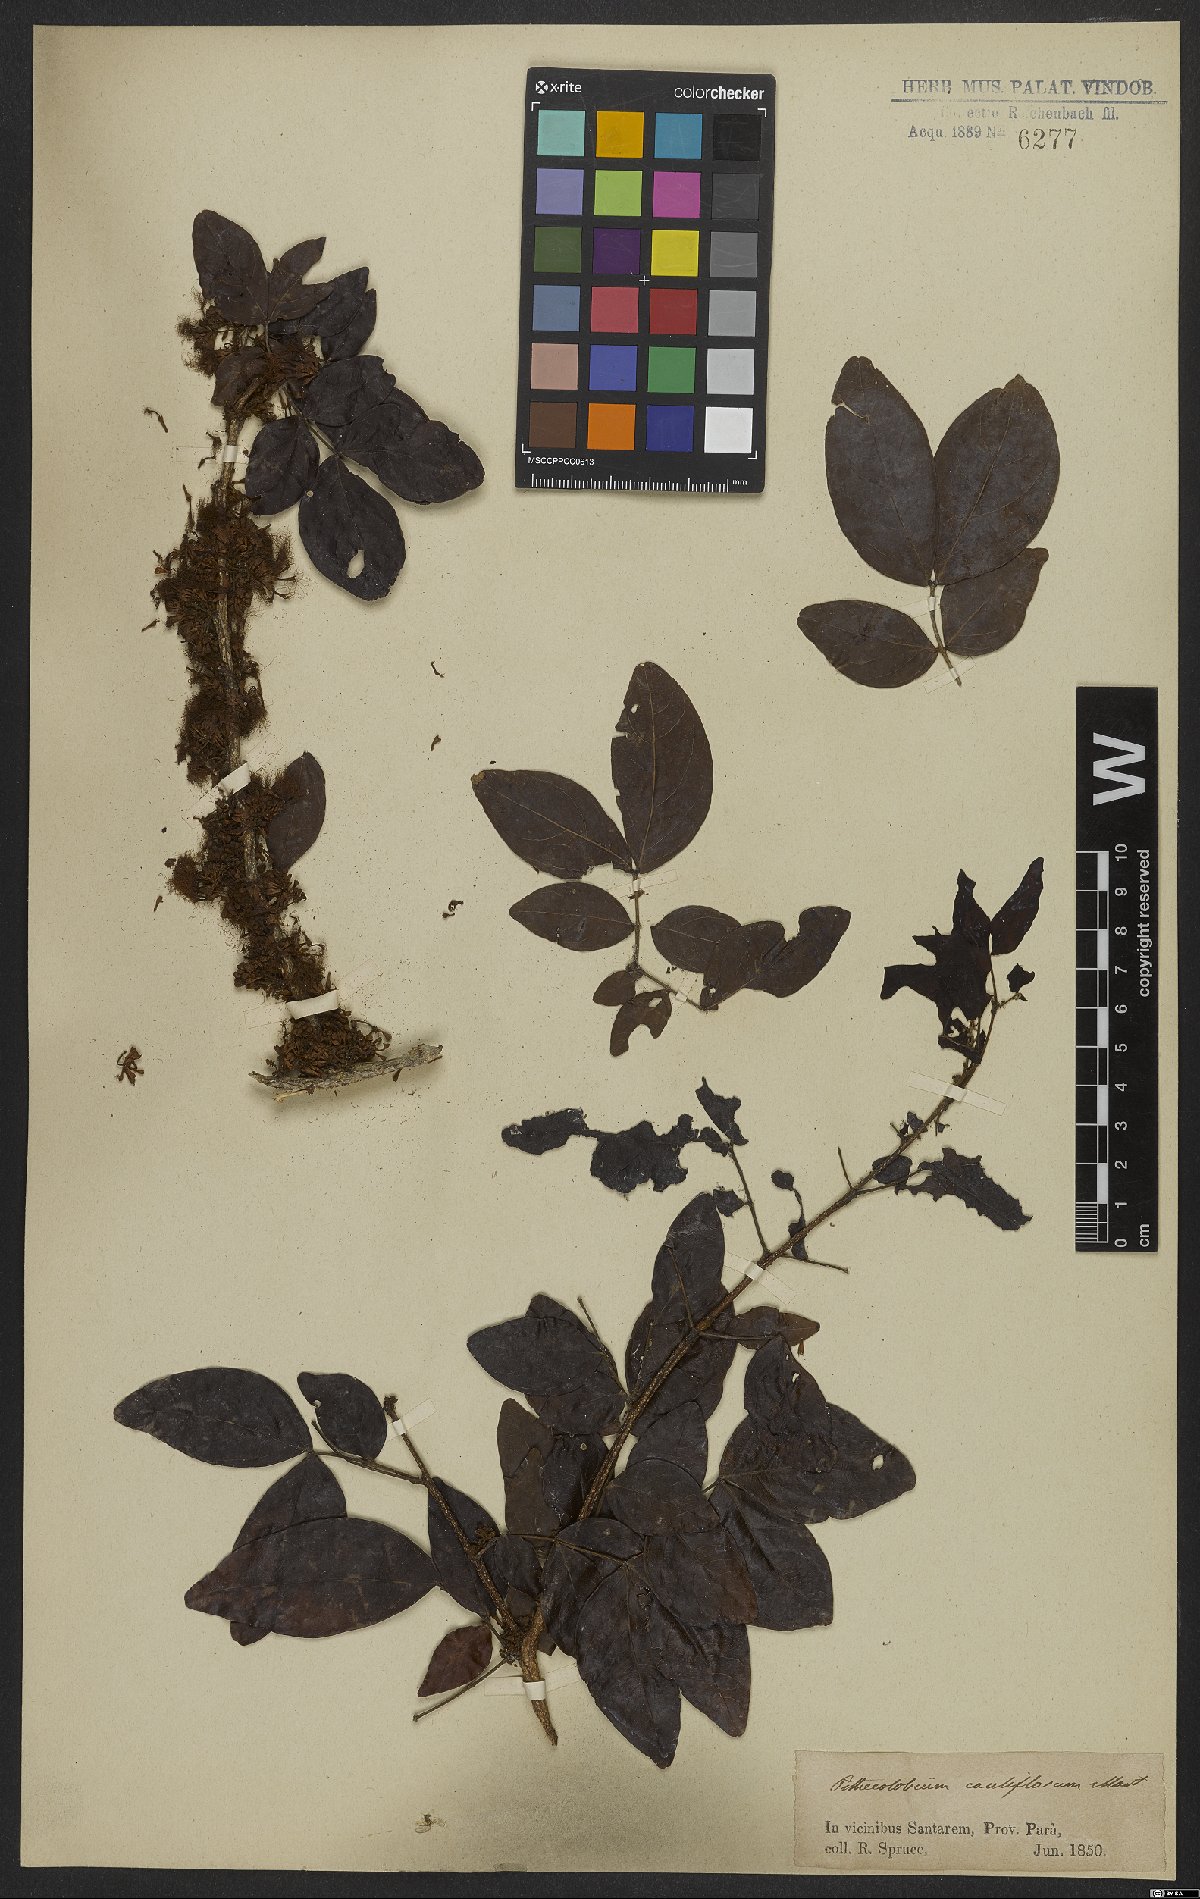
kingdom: Plantae
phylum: Tracheophyta
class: Magnoliopsida
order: Fabales
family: Fabaceae
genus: Zygia
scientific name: Zygia cauliflora
